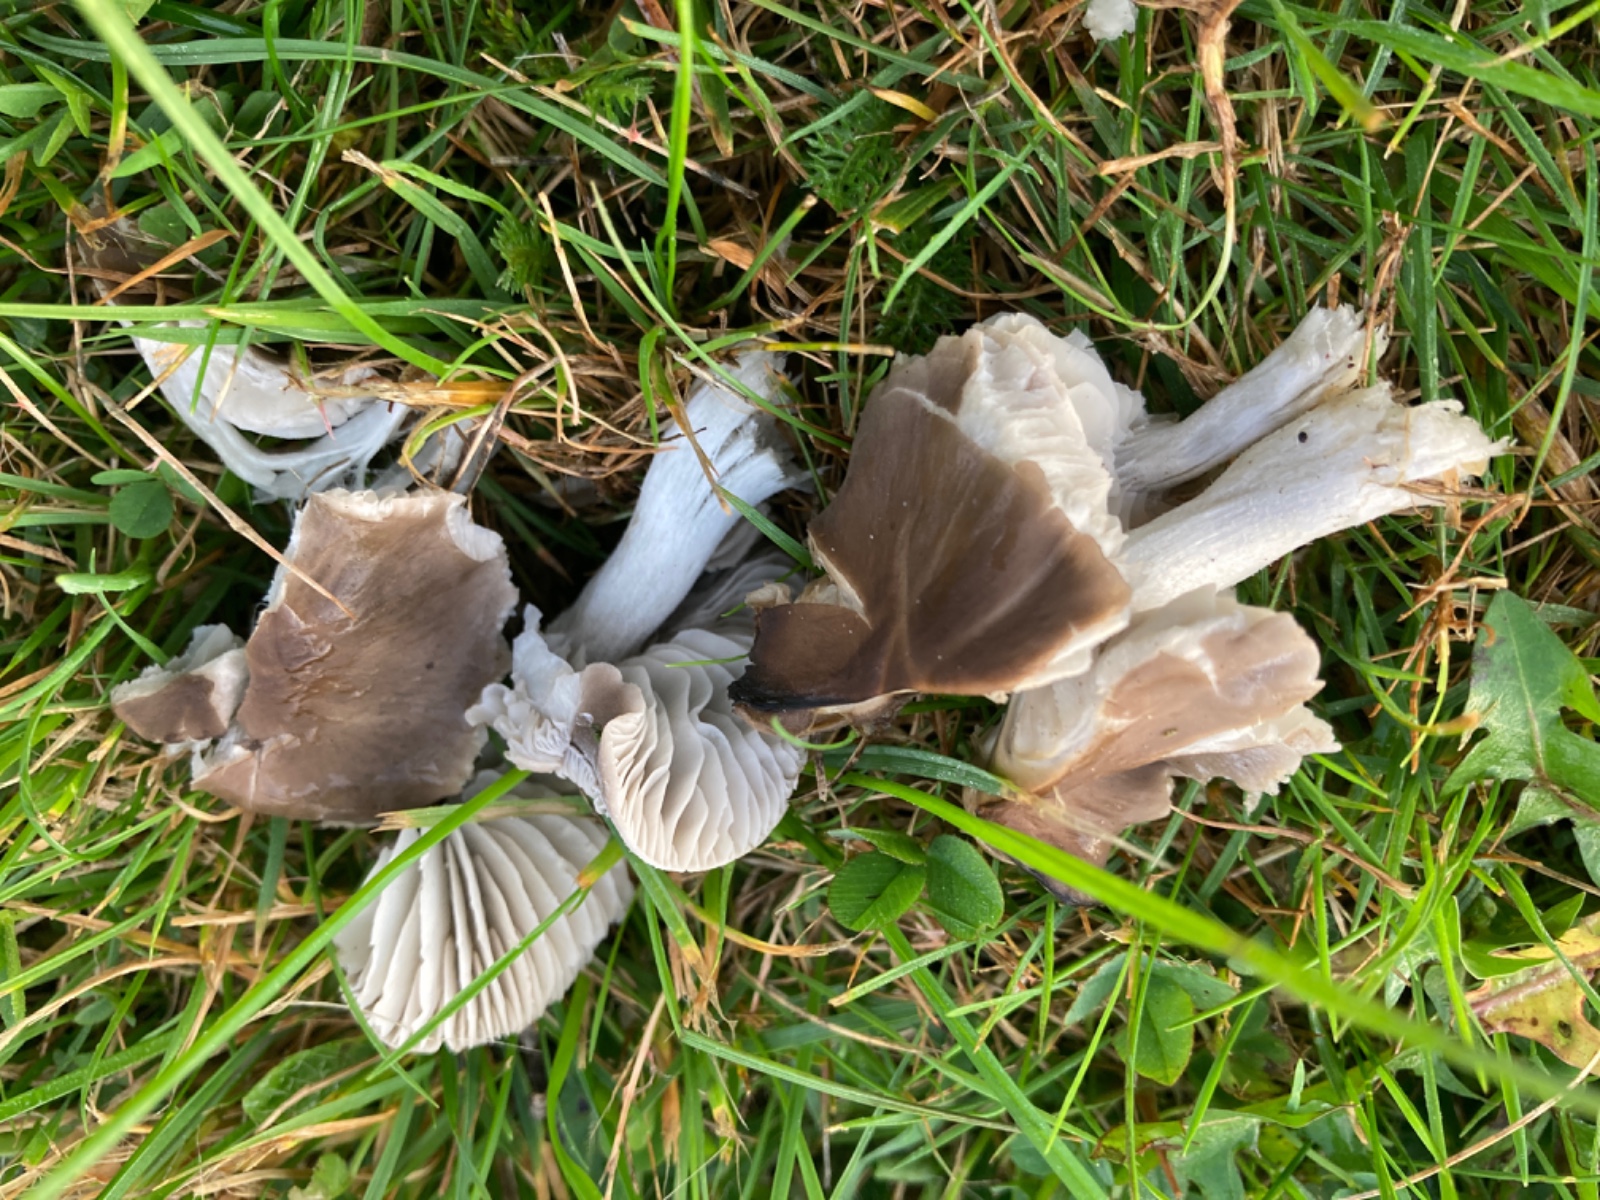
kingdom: Fungi
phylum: Basidiomycota
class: Agaricomycetes
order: Agaricales
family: Tricholomataceae
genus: Dermoloma
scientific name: Dermoloma cuneifolium
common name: eng-nonnehat
